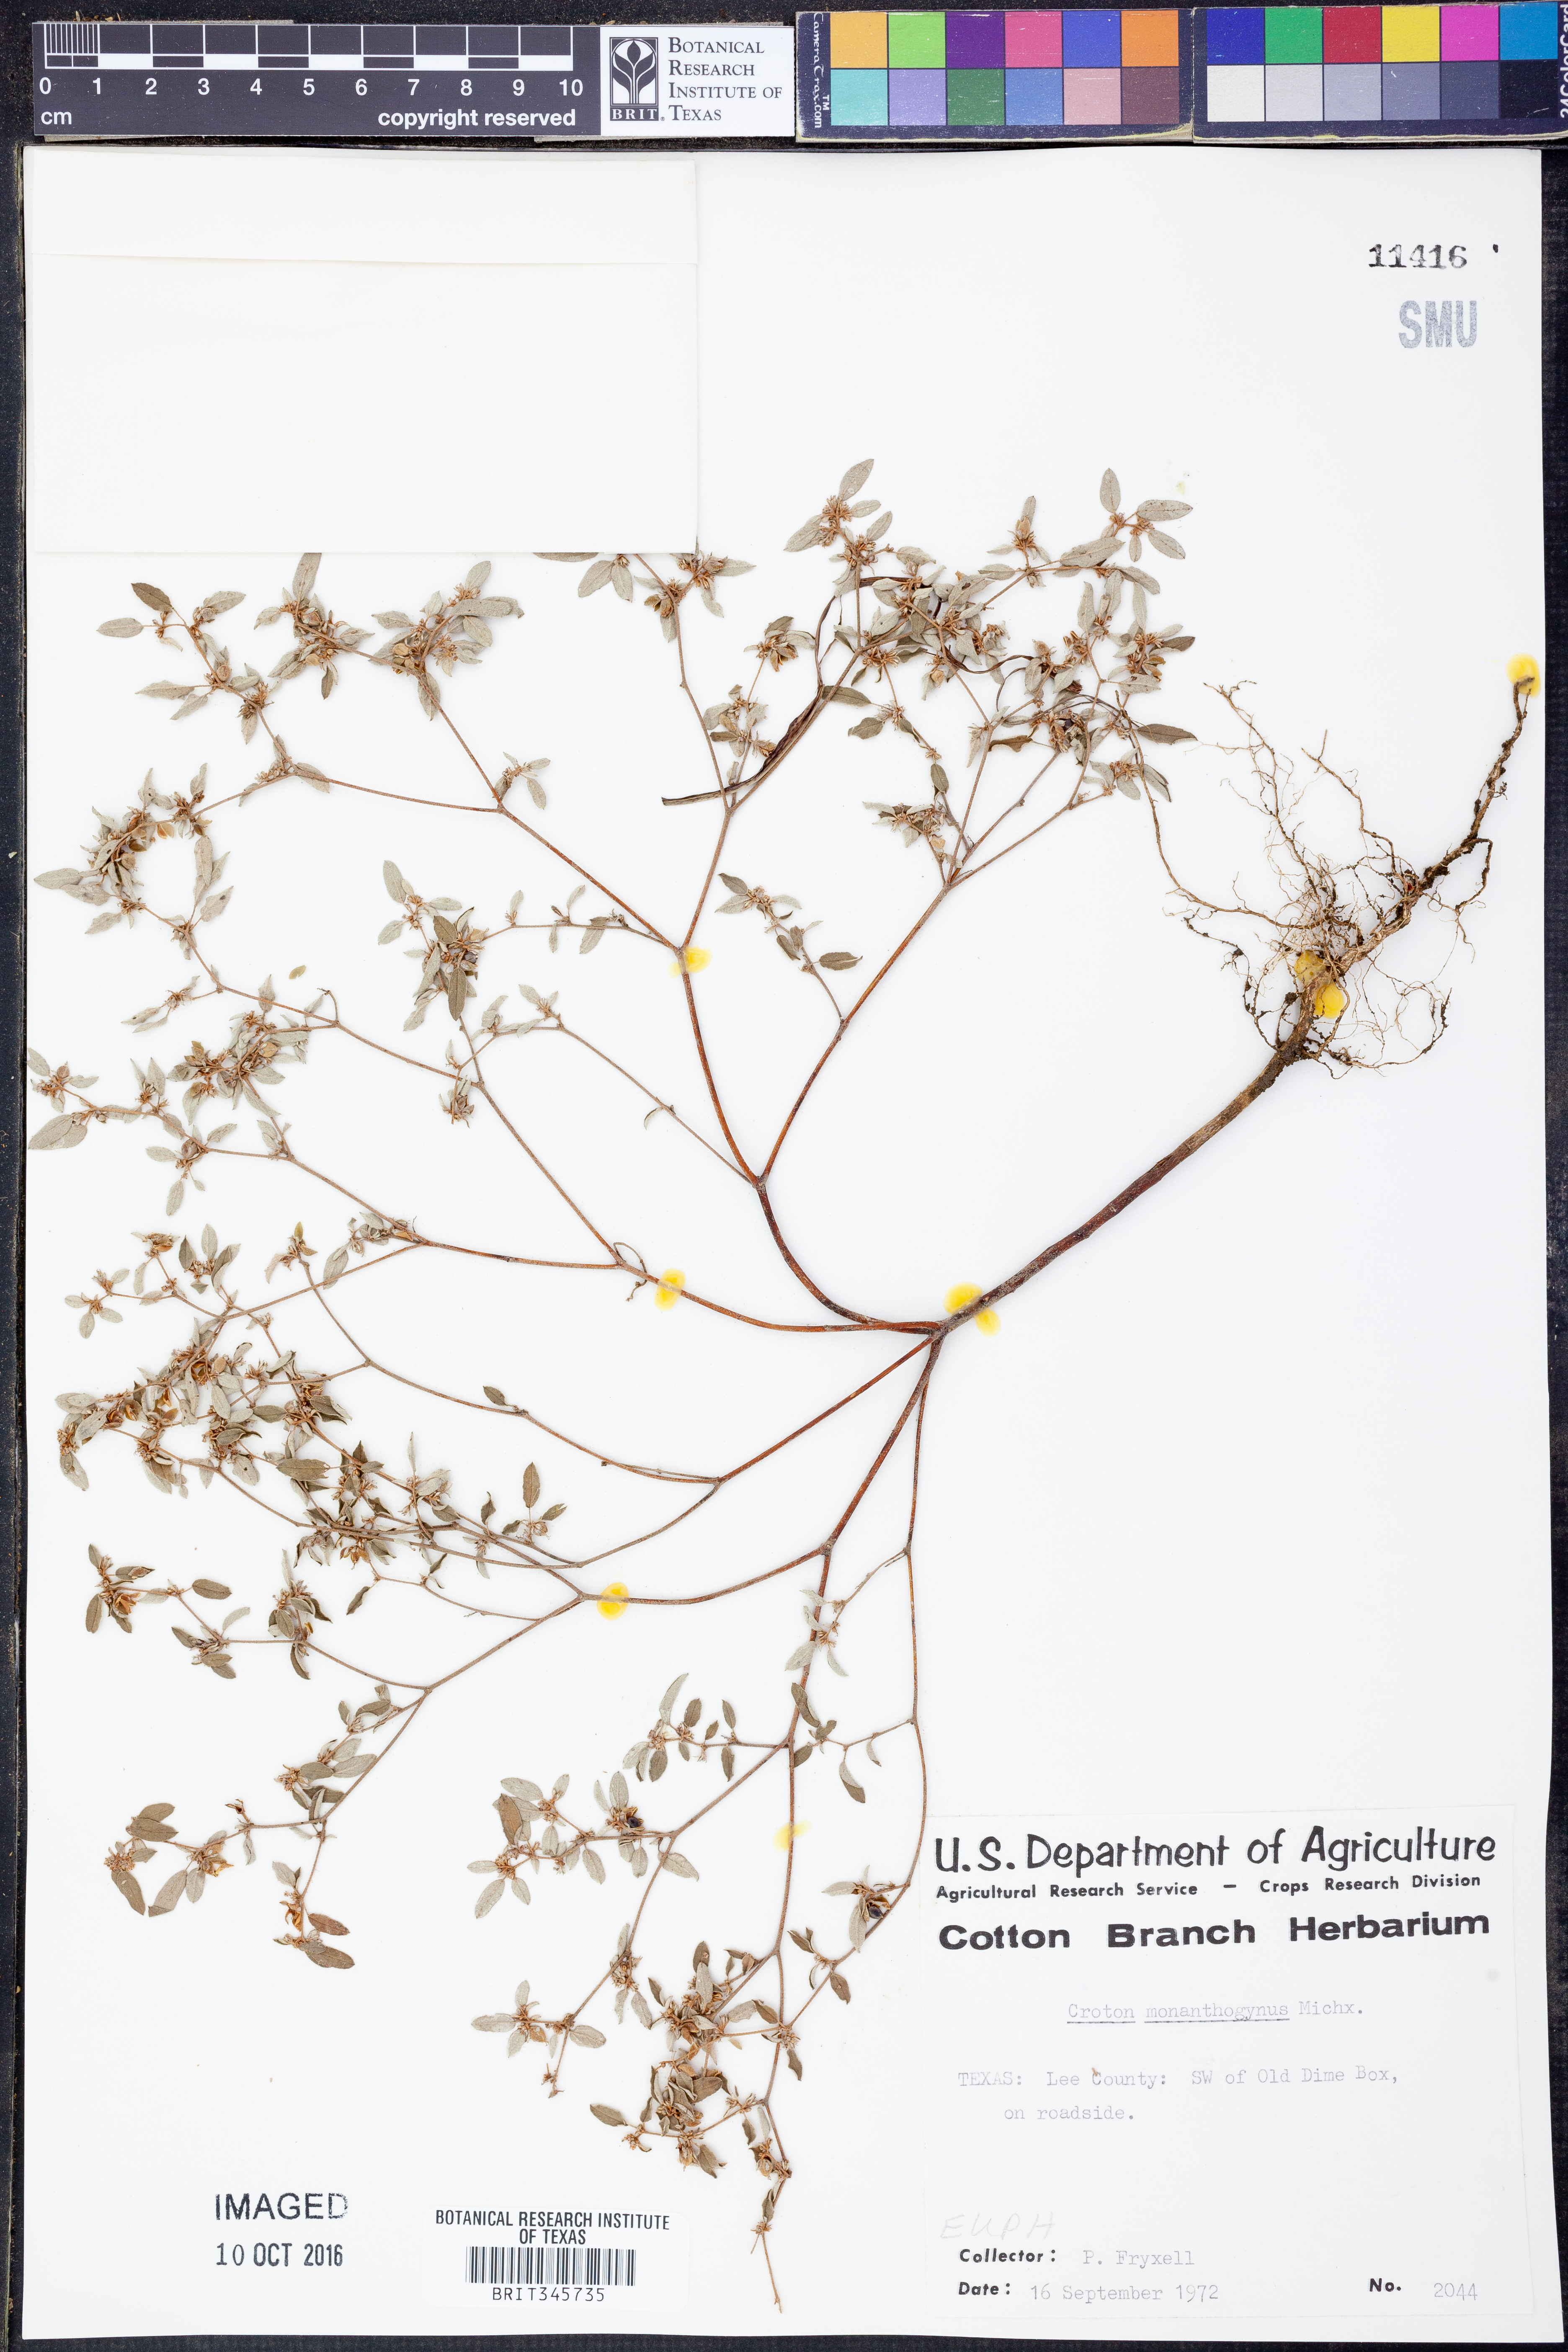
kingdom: Plantae
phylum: Tracheophyta
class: Magnoliopsida
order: Malpighiales
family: Euphorbiaceae
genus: Croton
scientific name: Croton monanthogynus
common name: One-seed croton
